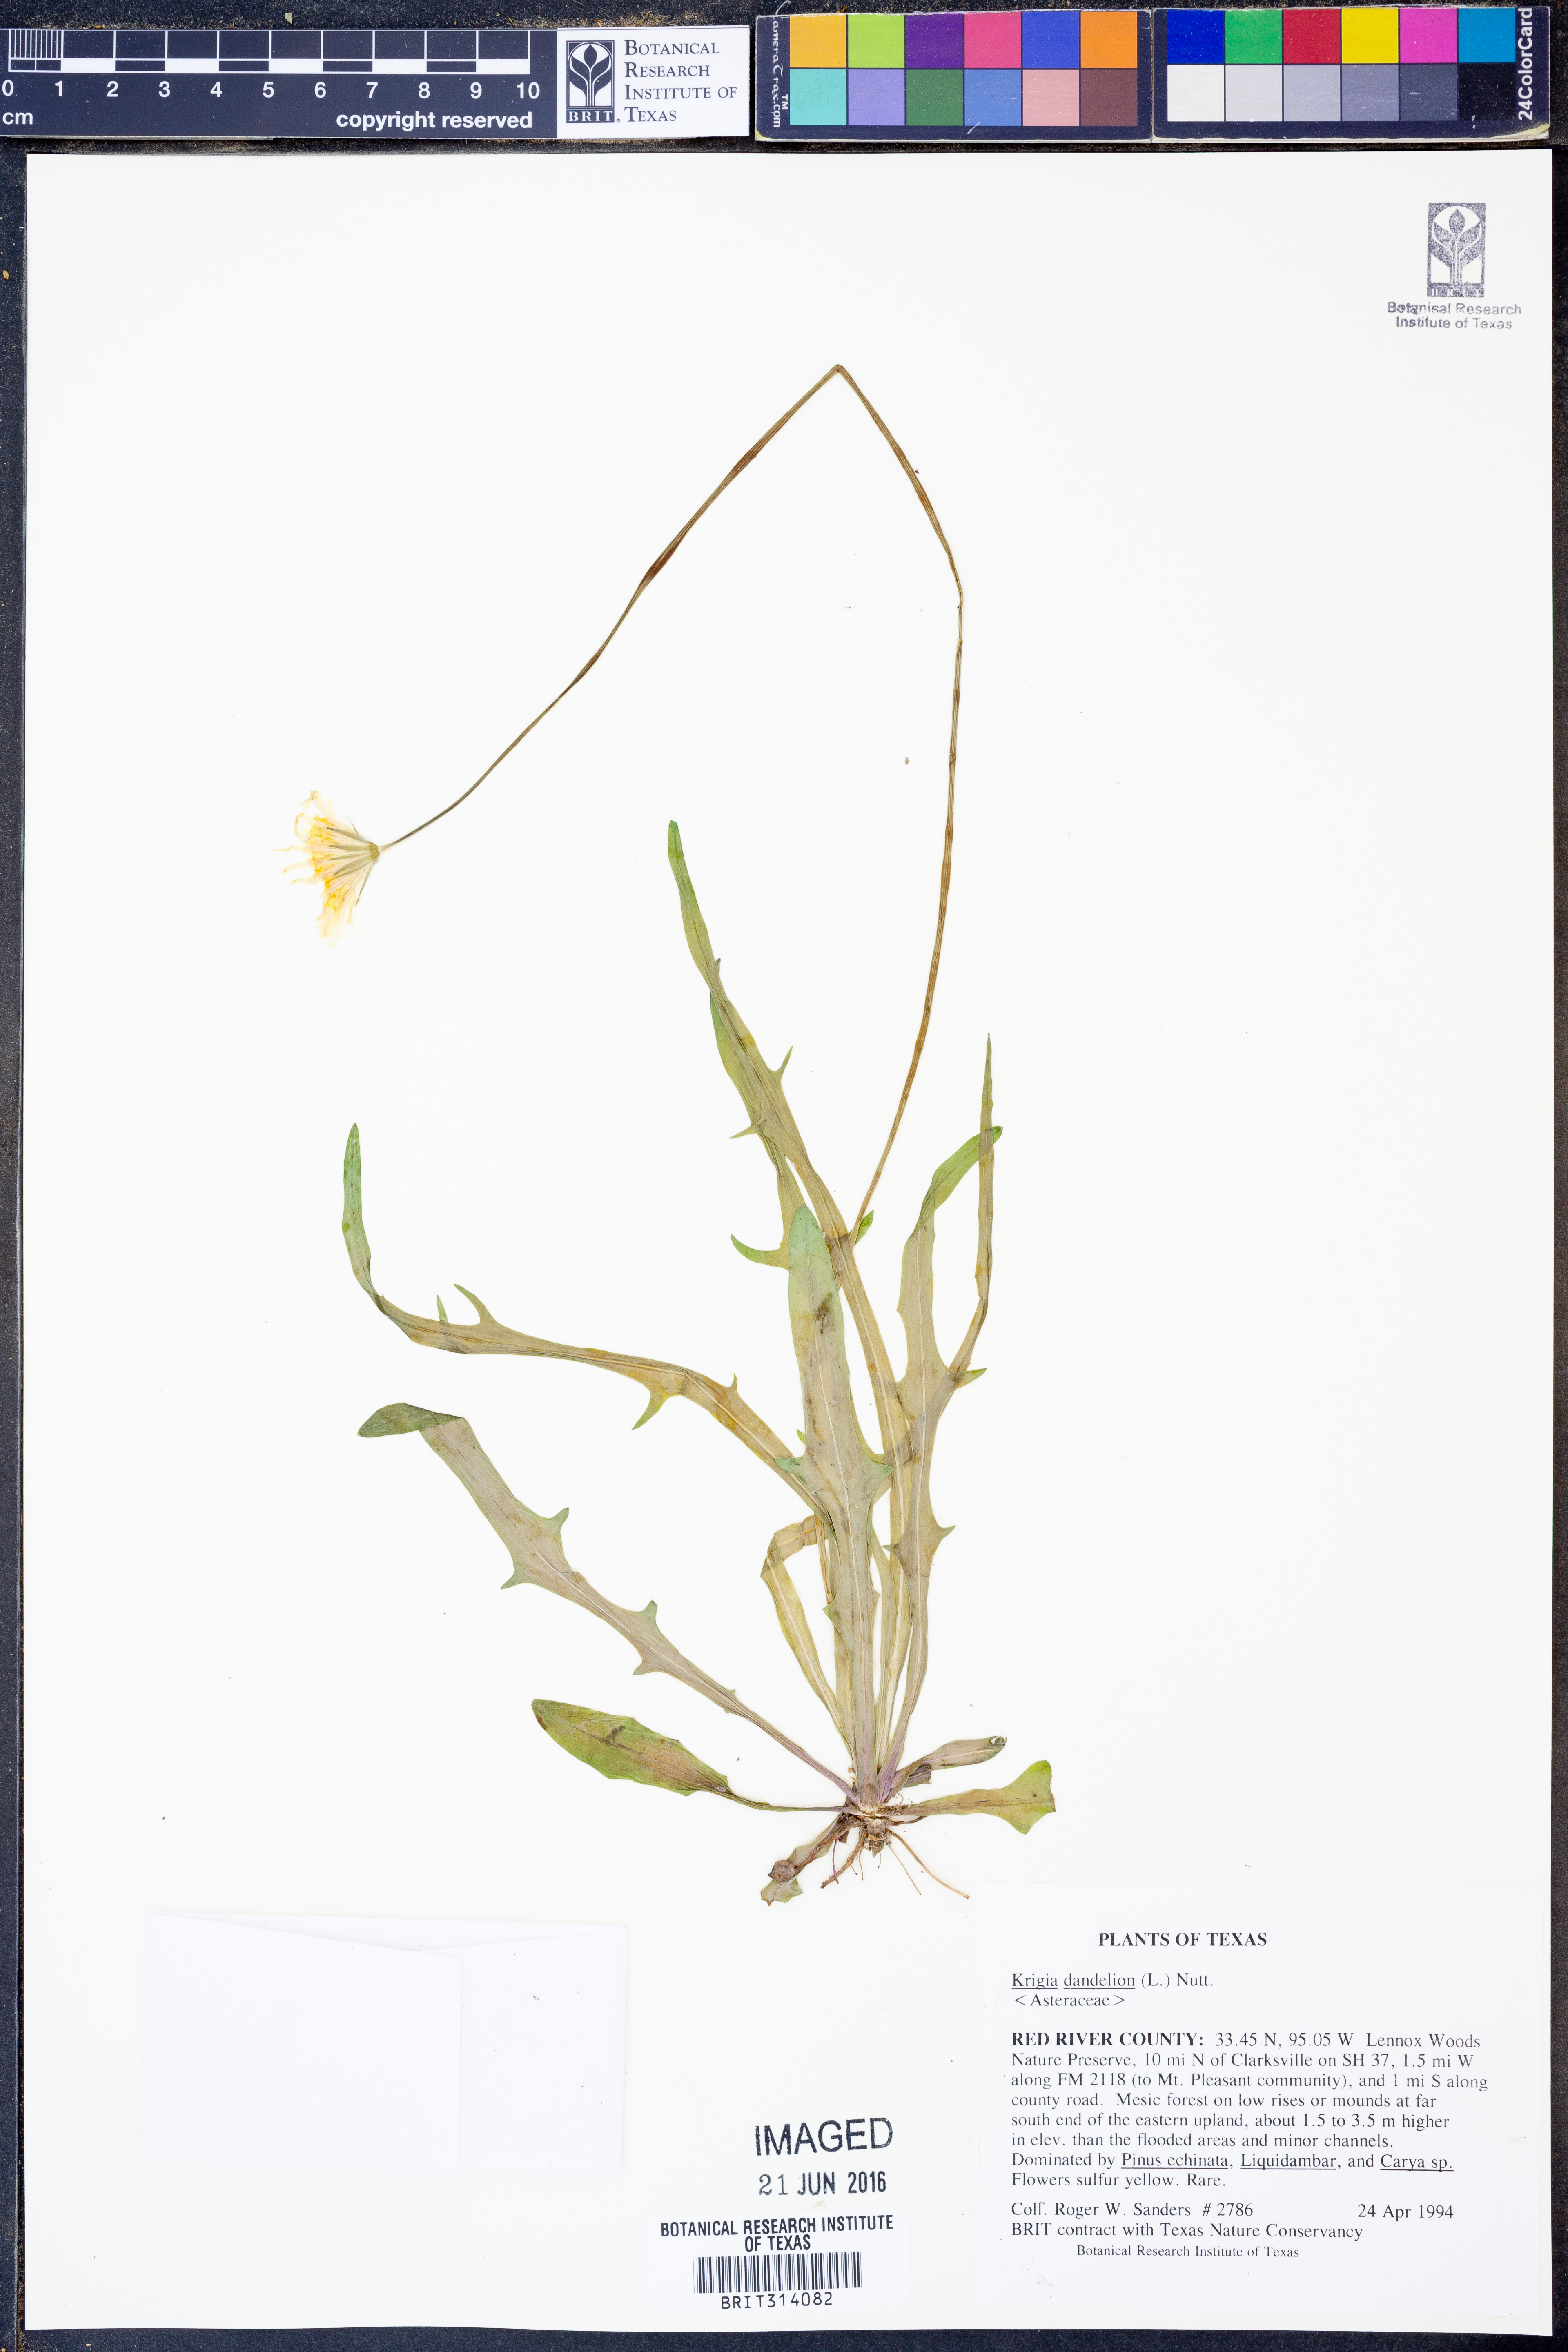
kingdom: Plantae
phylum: Tracheophyta
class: Magnoliopsida
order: Asterales
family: Asteraceae
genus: Krigia
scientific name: Krigia dandelion
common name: Colonial dwarf-dandelion
